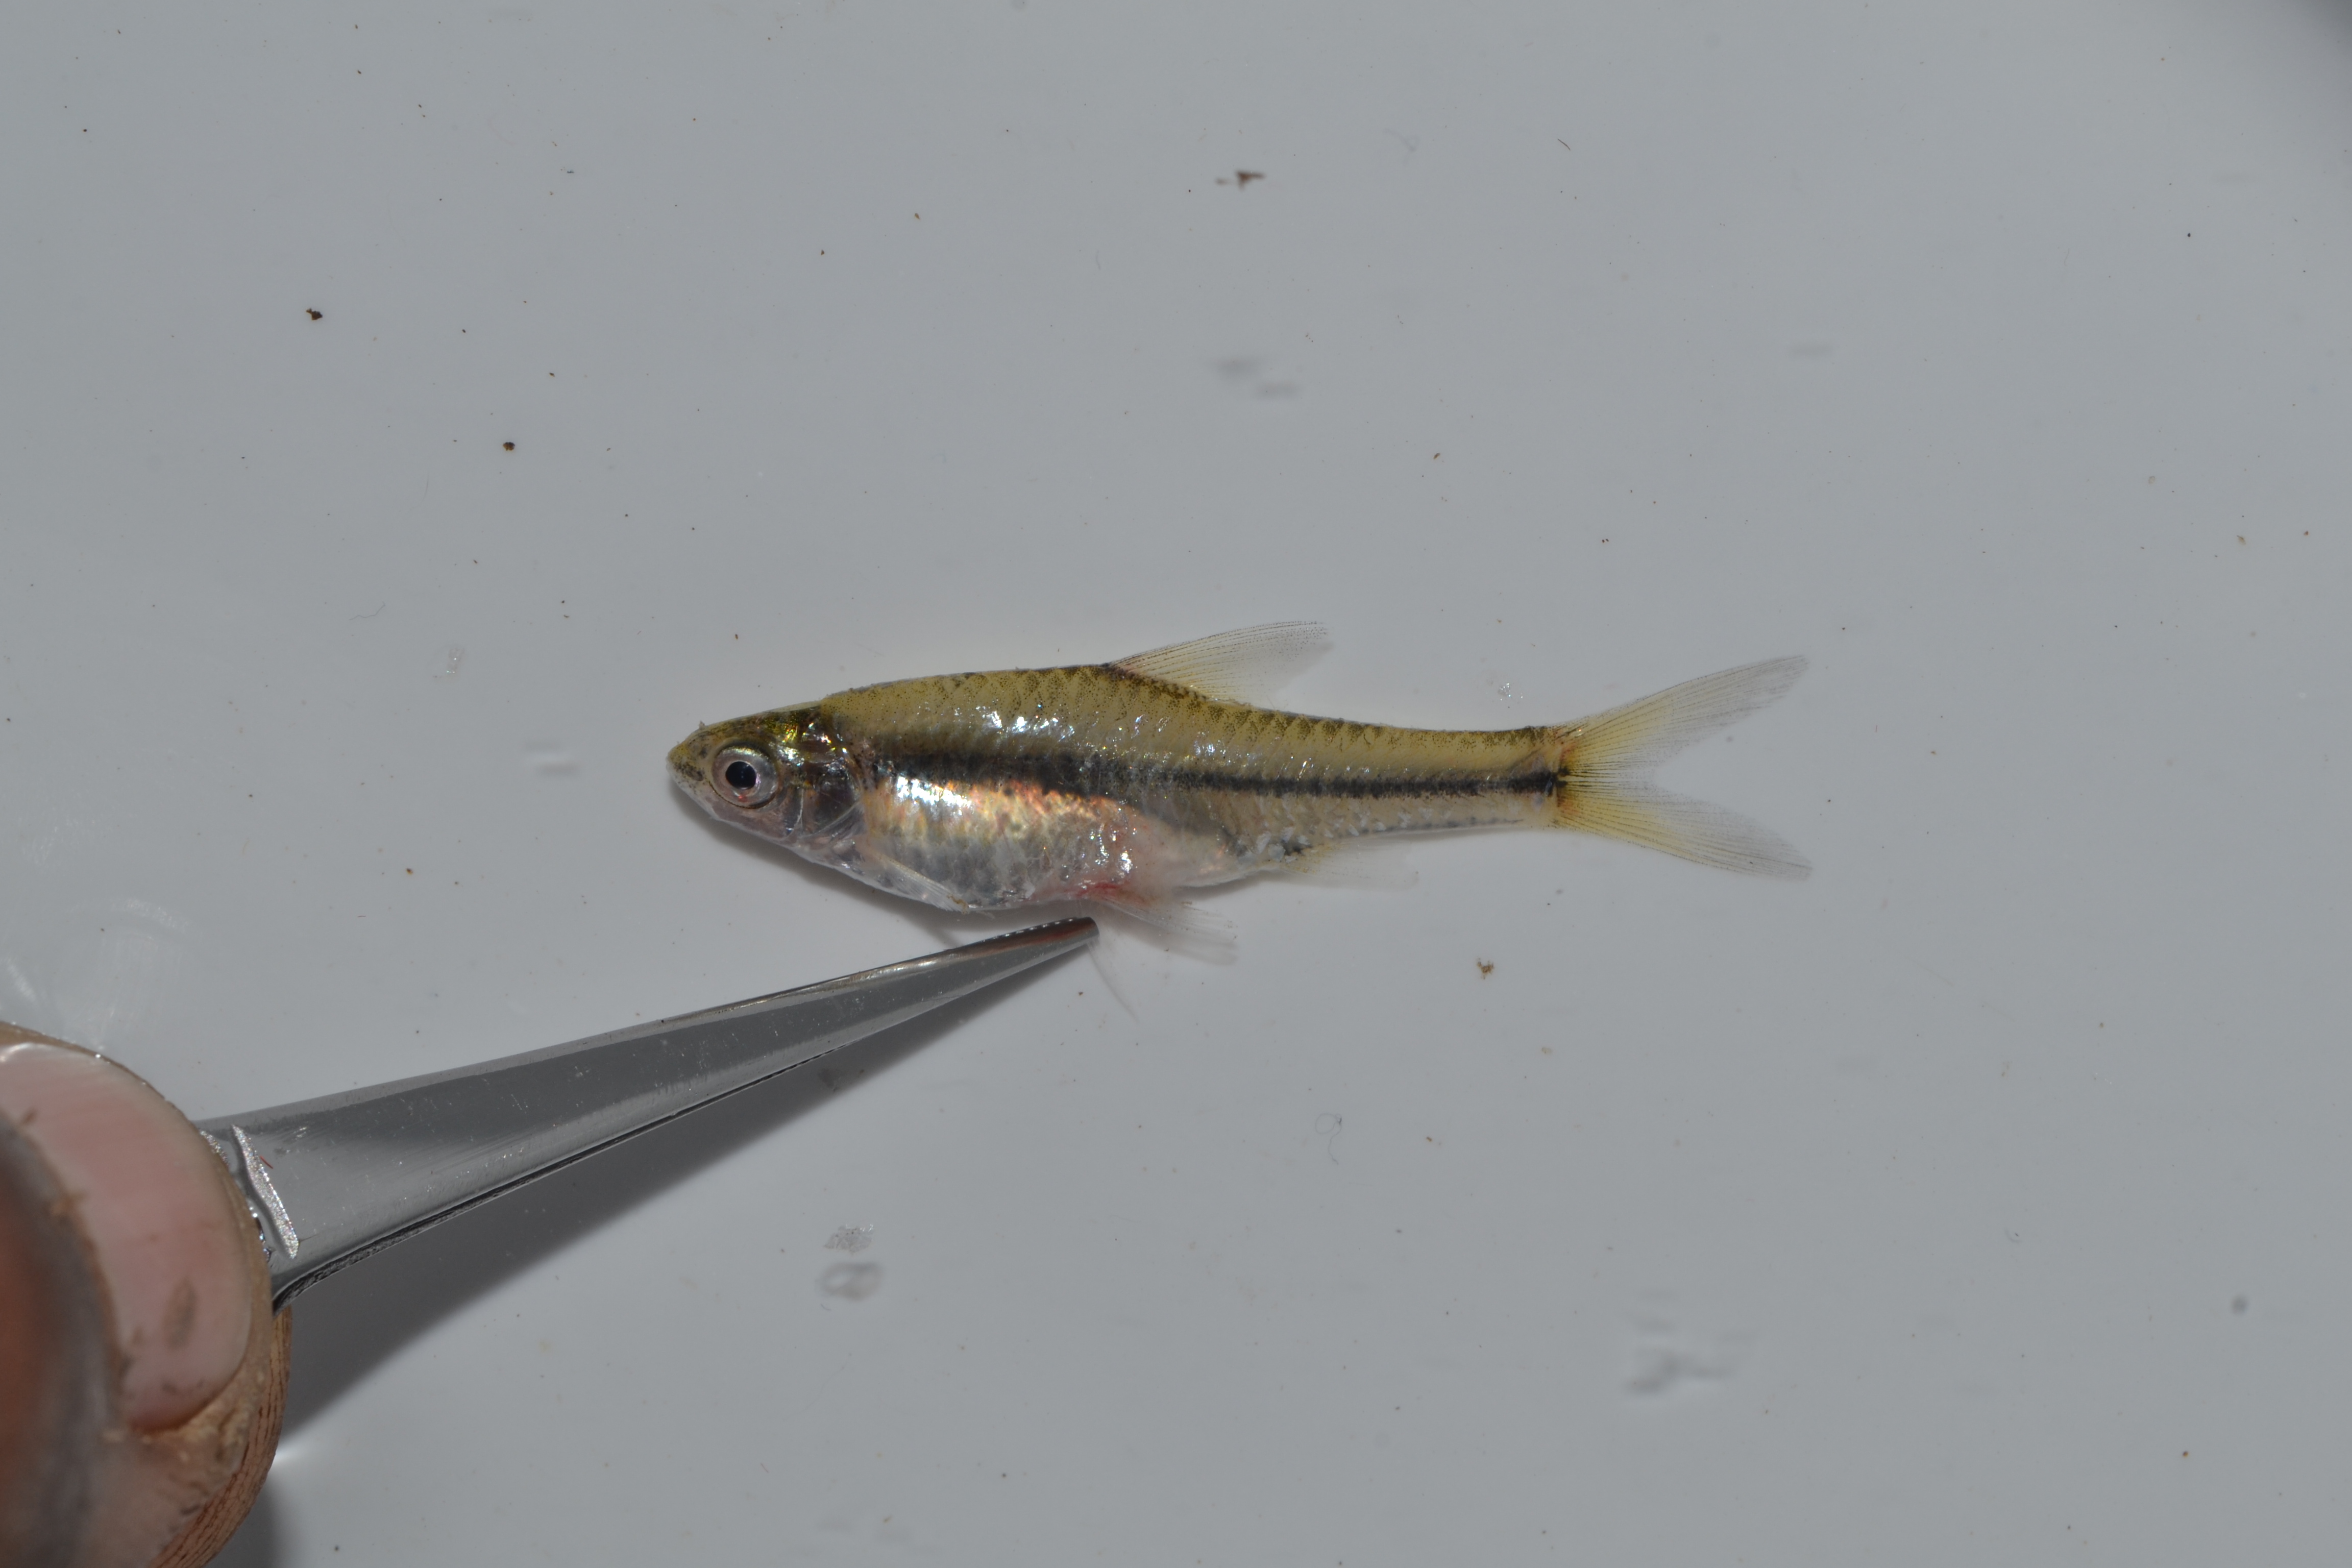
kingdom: Animalia
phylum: Chordata
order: Cypriniformes
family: Cyprinidae
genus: Enteromius
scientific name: Enteromius toppini
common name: East coast barb
